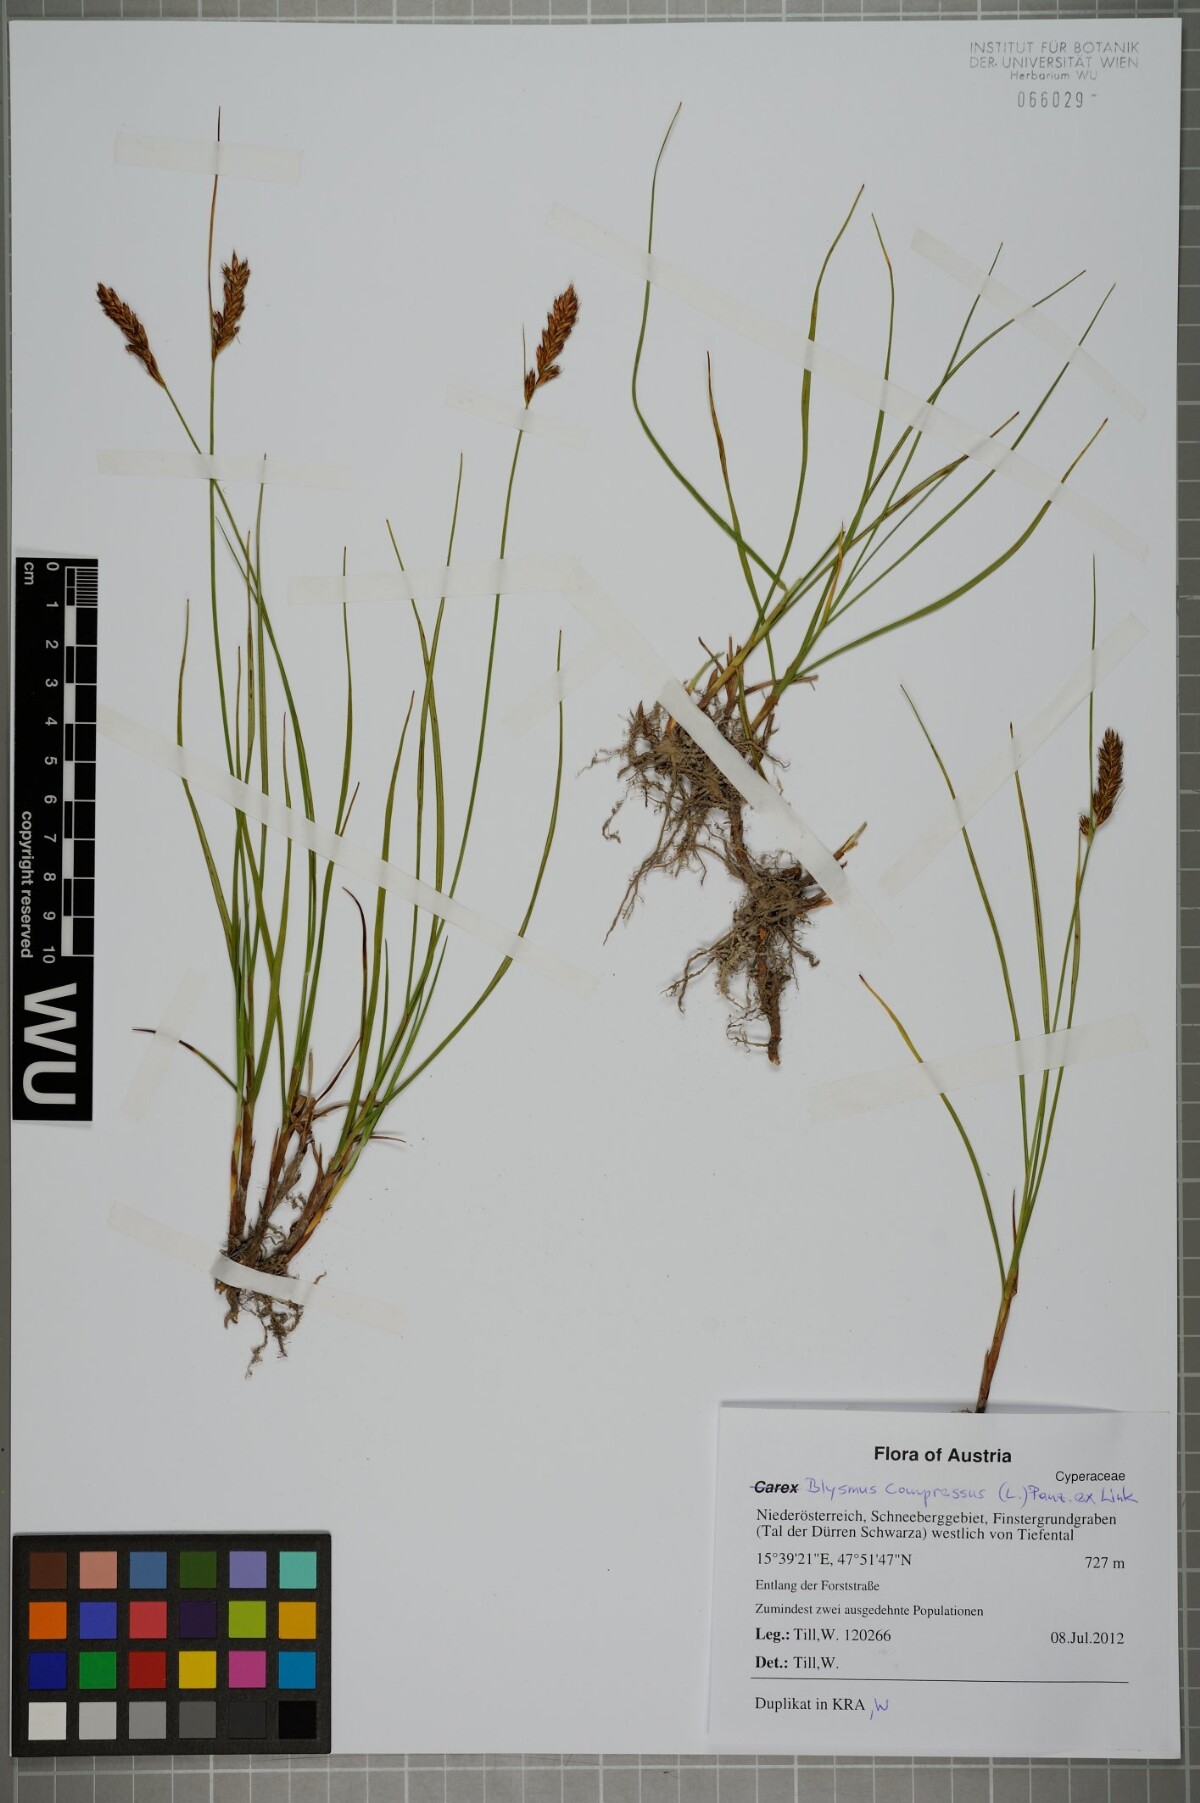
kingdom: Plantae
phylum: Tracheophyta
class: Liliopsida
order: Poales
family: Cyperaceae
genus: Blysmus
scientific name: Blysmus compressus
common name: Flat-sedge
